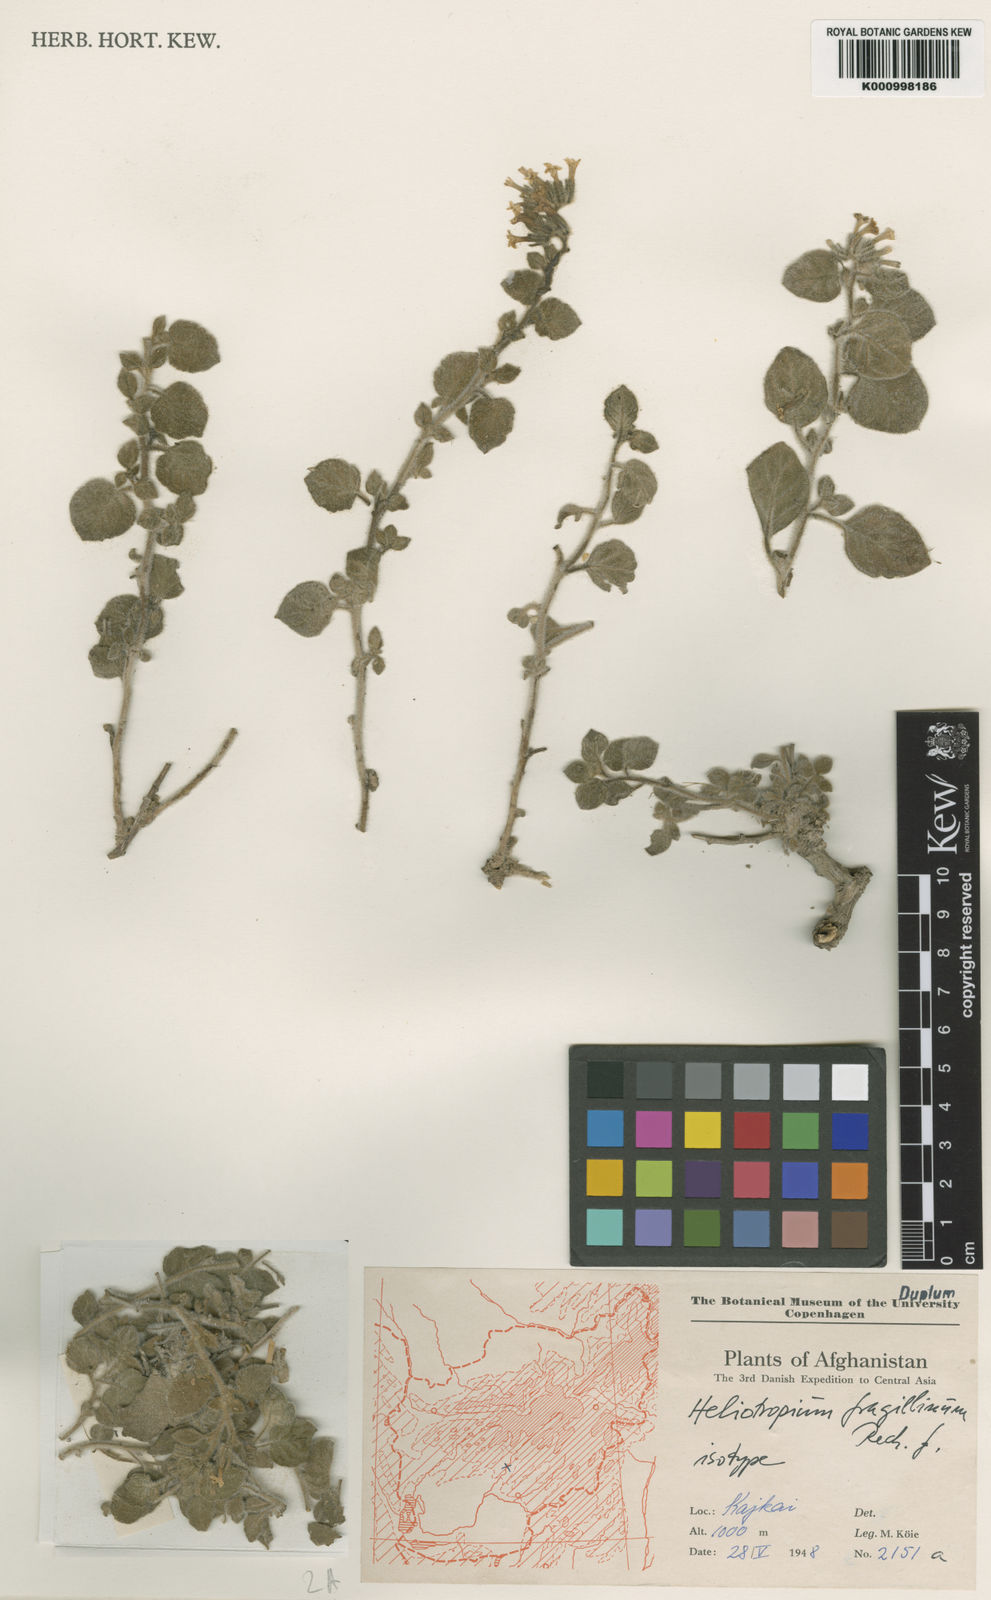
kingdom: Plantae
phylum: Tracheophyta
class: Magnoliopsida
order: Boraginales
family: Heliotropiaceae
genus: Heliotropium
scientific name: Heliotropium fragillimum
